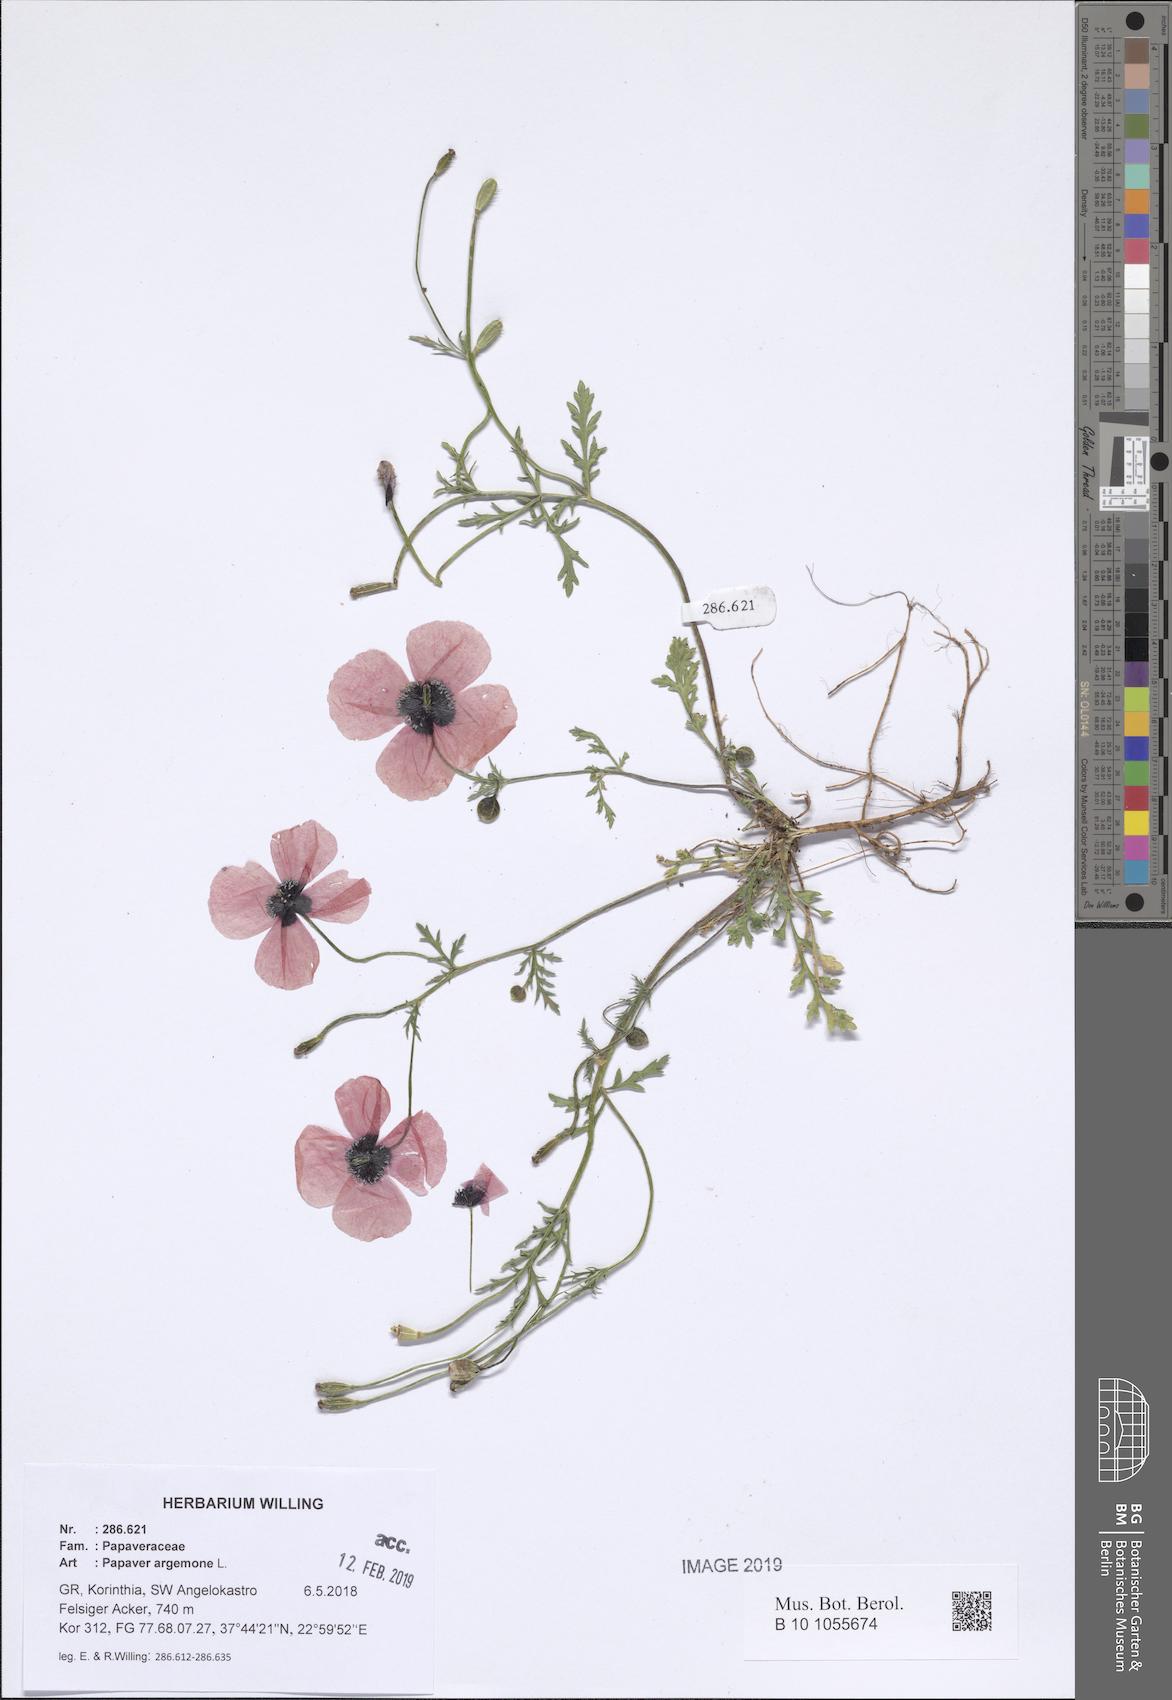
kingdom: Plantae
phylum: Tracheophyta
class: Magnoliopsida
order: Ranunculales
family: Papaveraceae
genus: Roemeria
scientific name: Roemeria argemone
